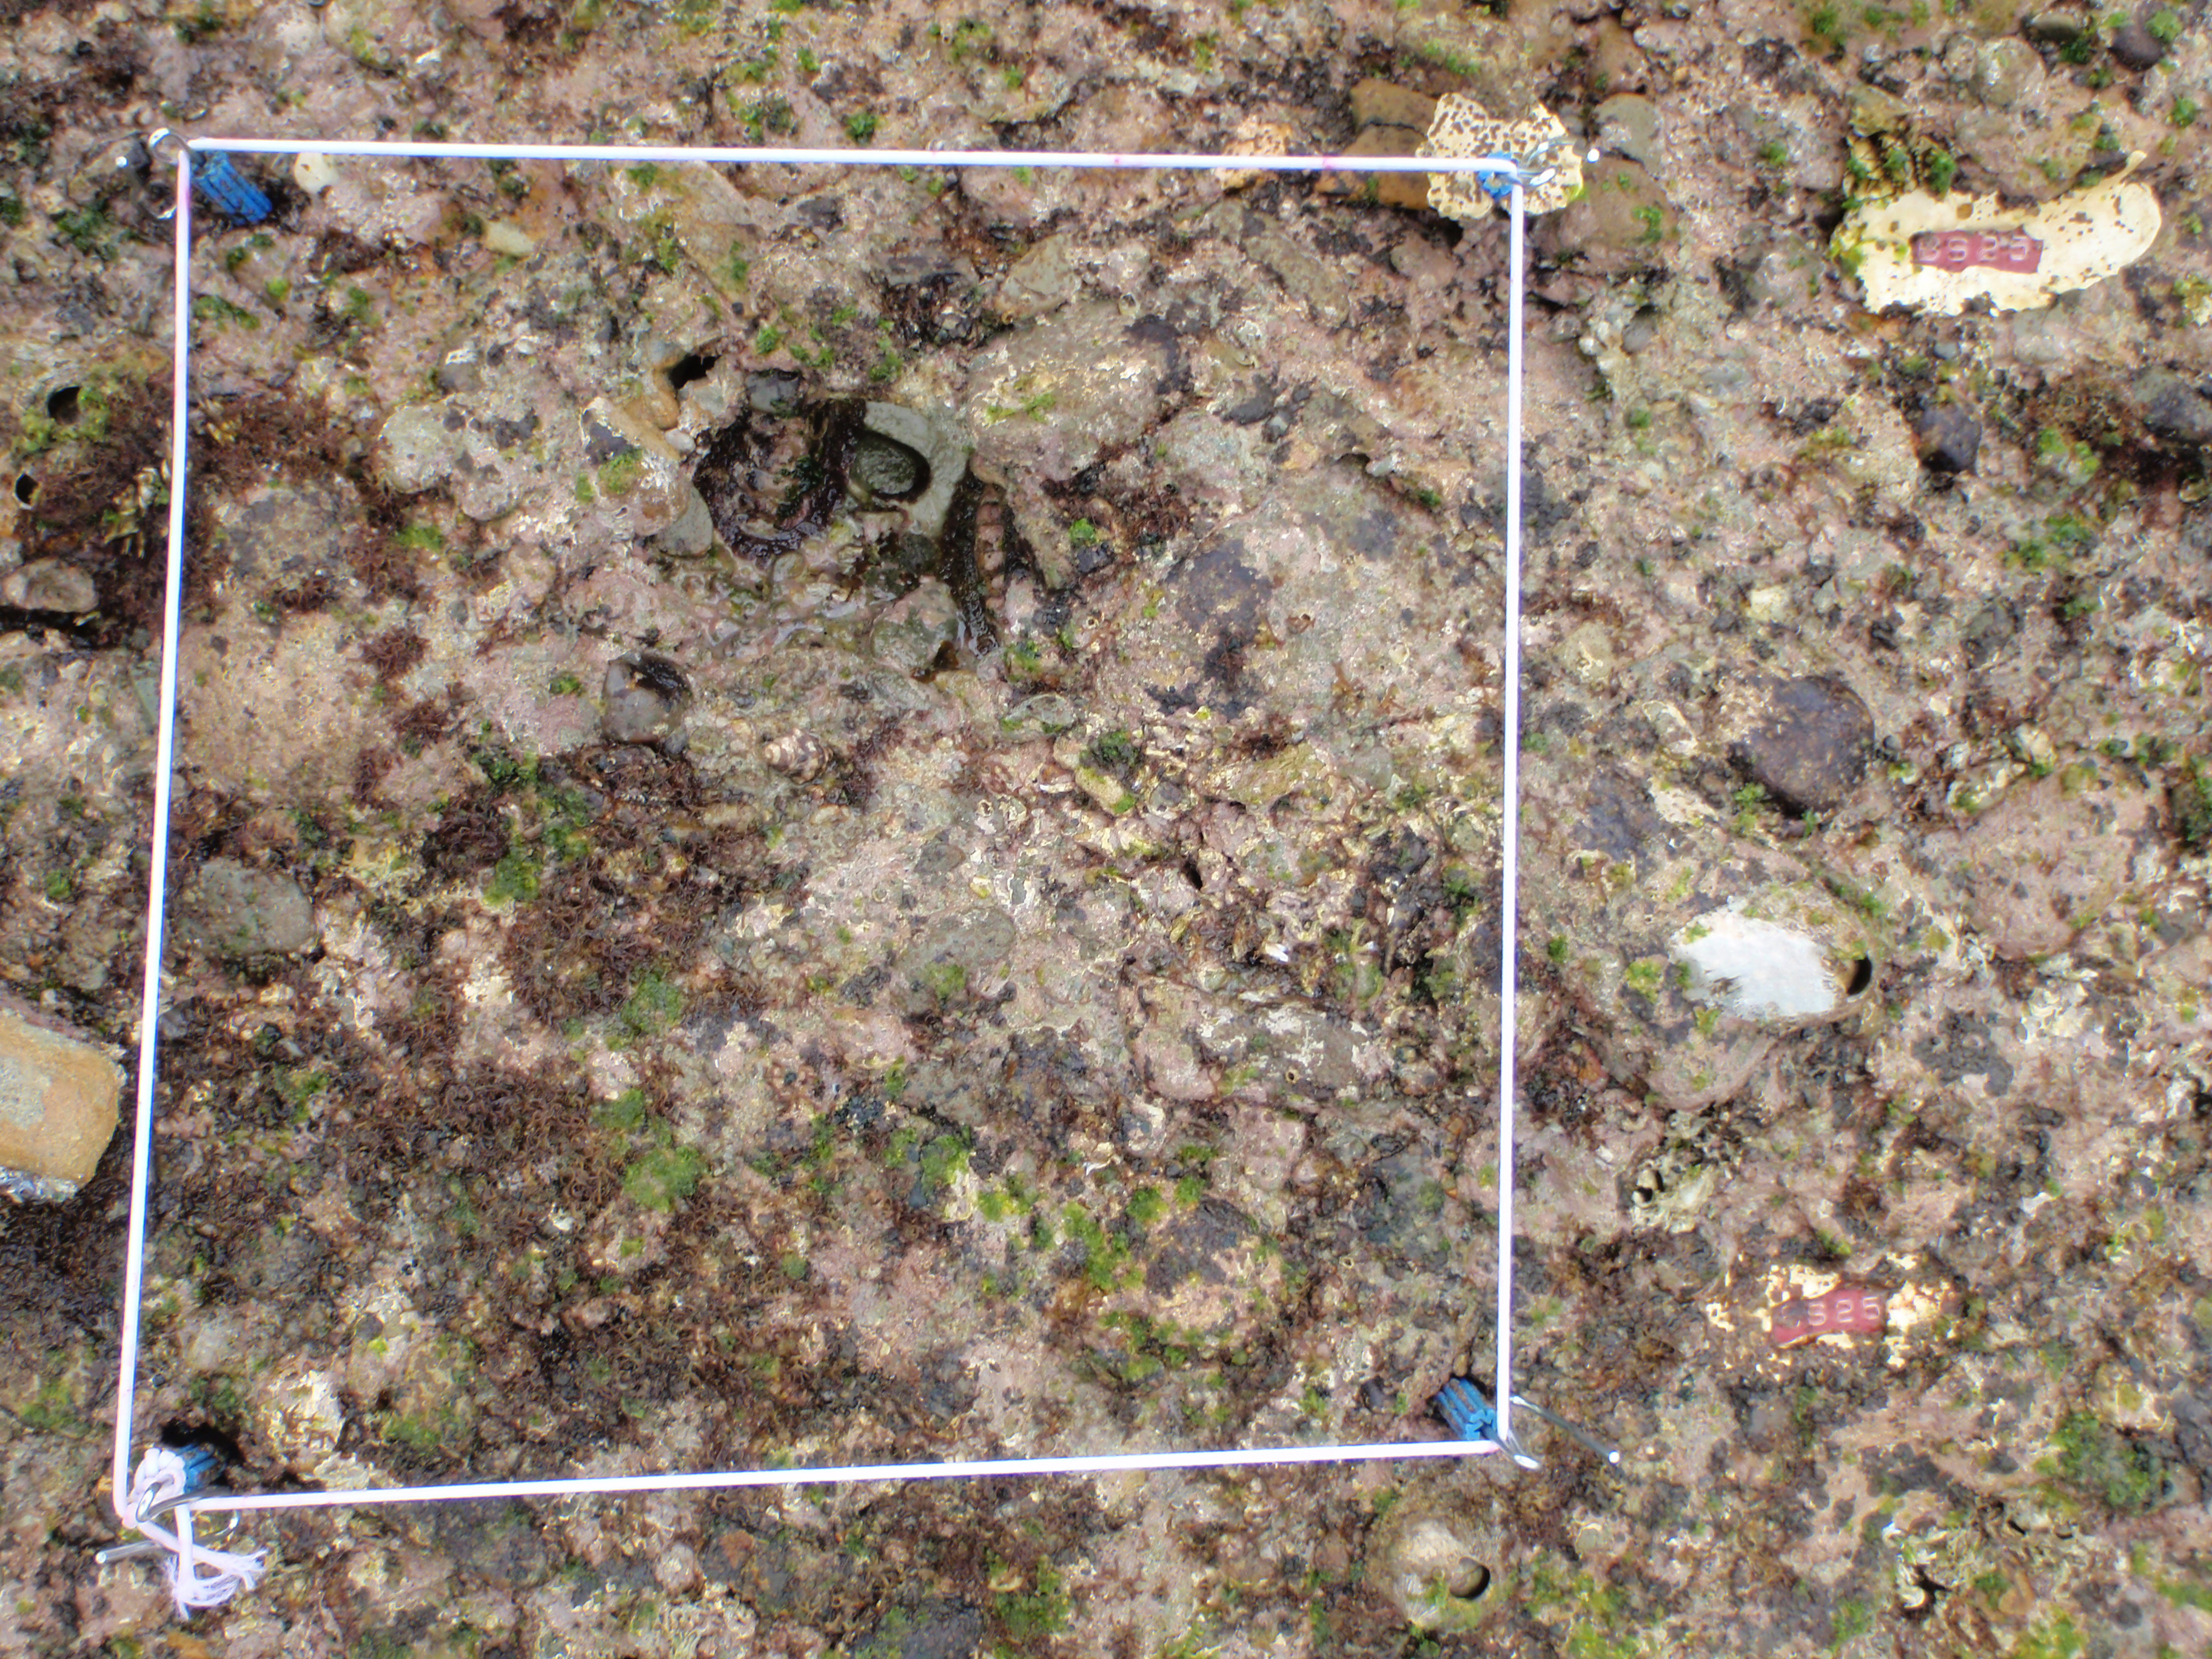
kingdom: Animalia
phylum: Arthropoda
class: Maxillopoda
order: Sessilia
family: Chthamalidae
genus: Chthamalus
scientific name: Chthamalus challengeri
